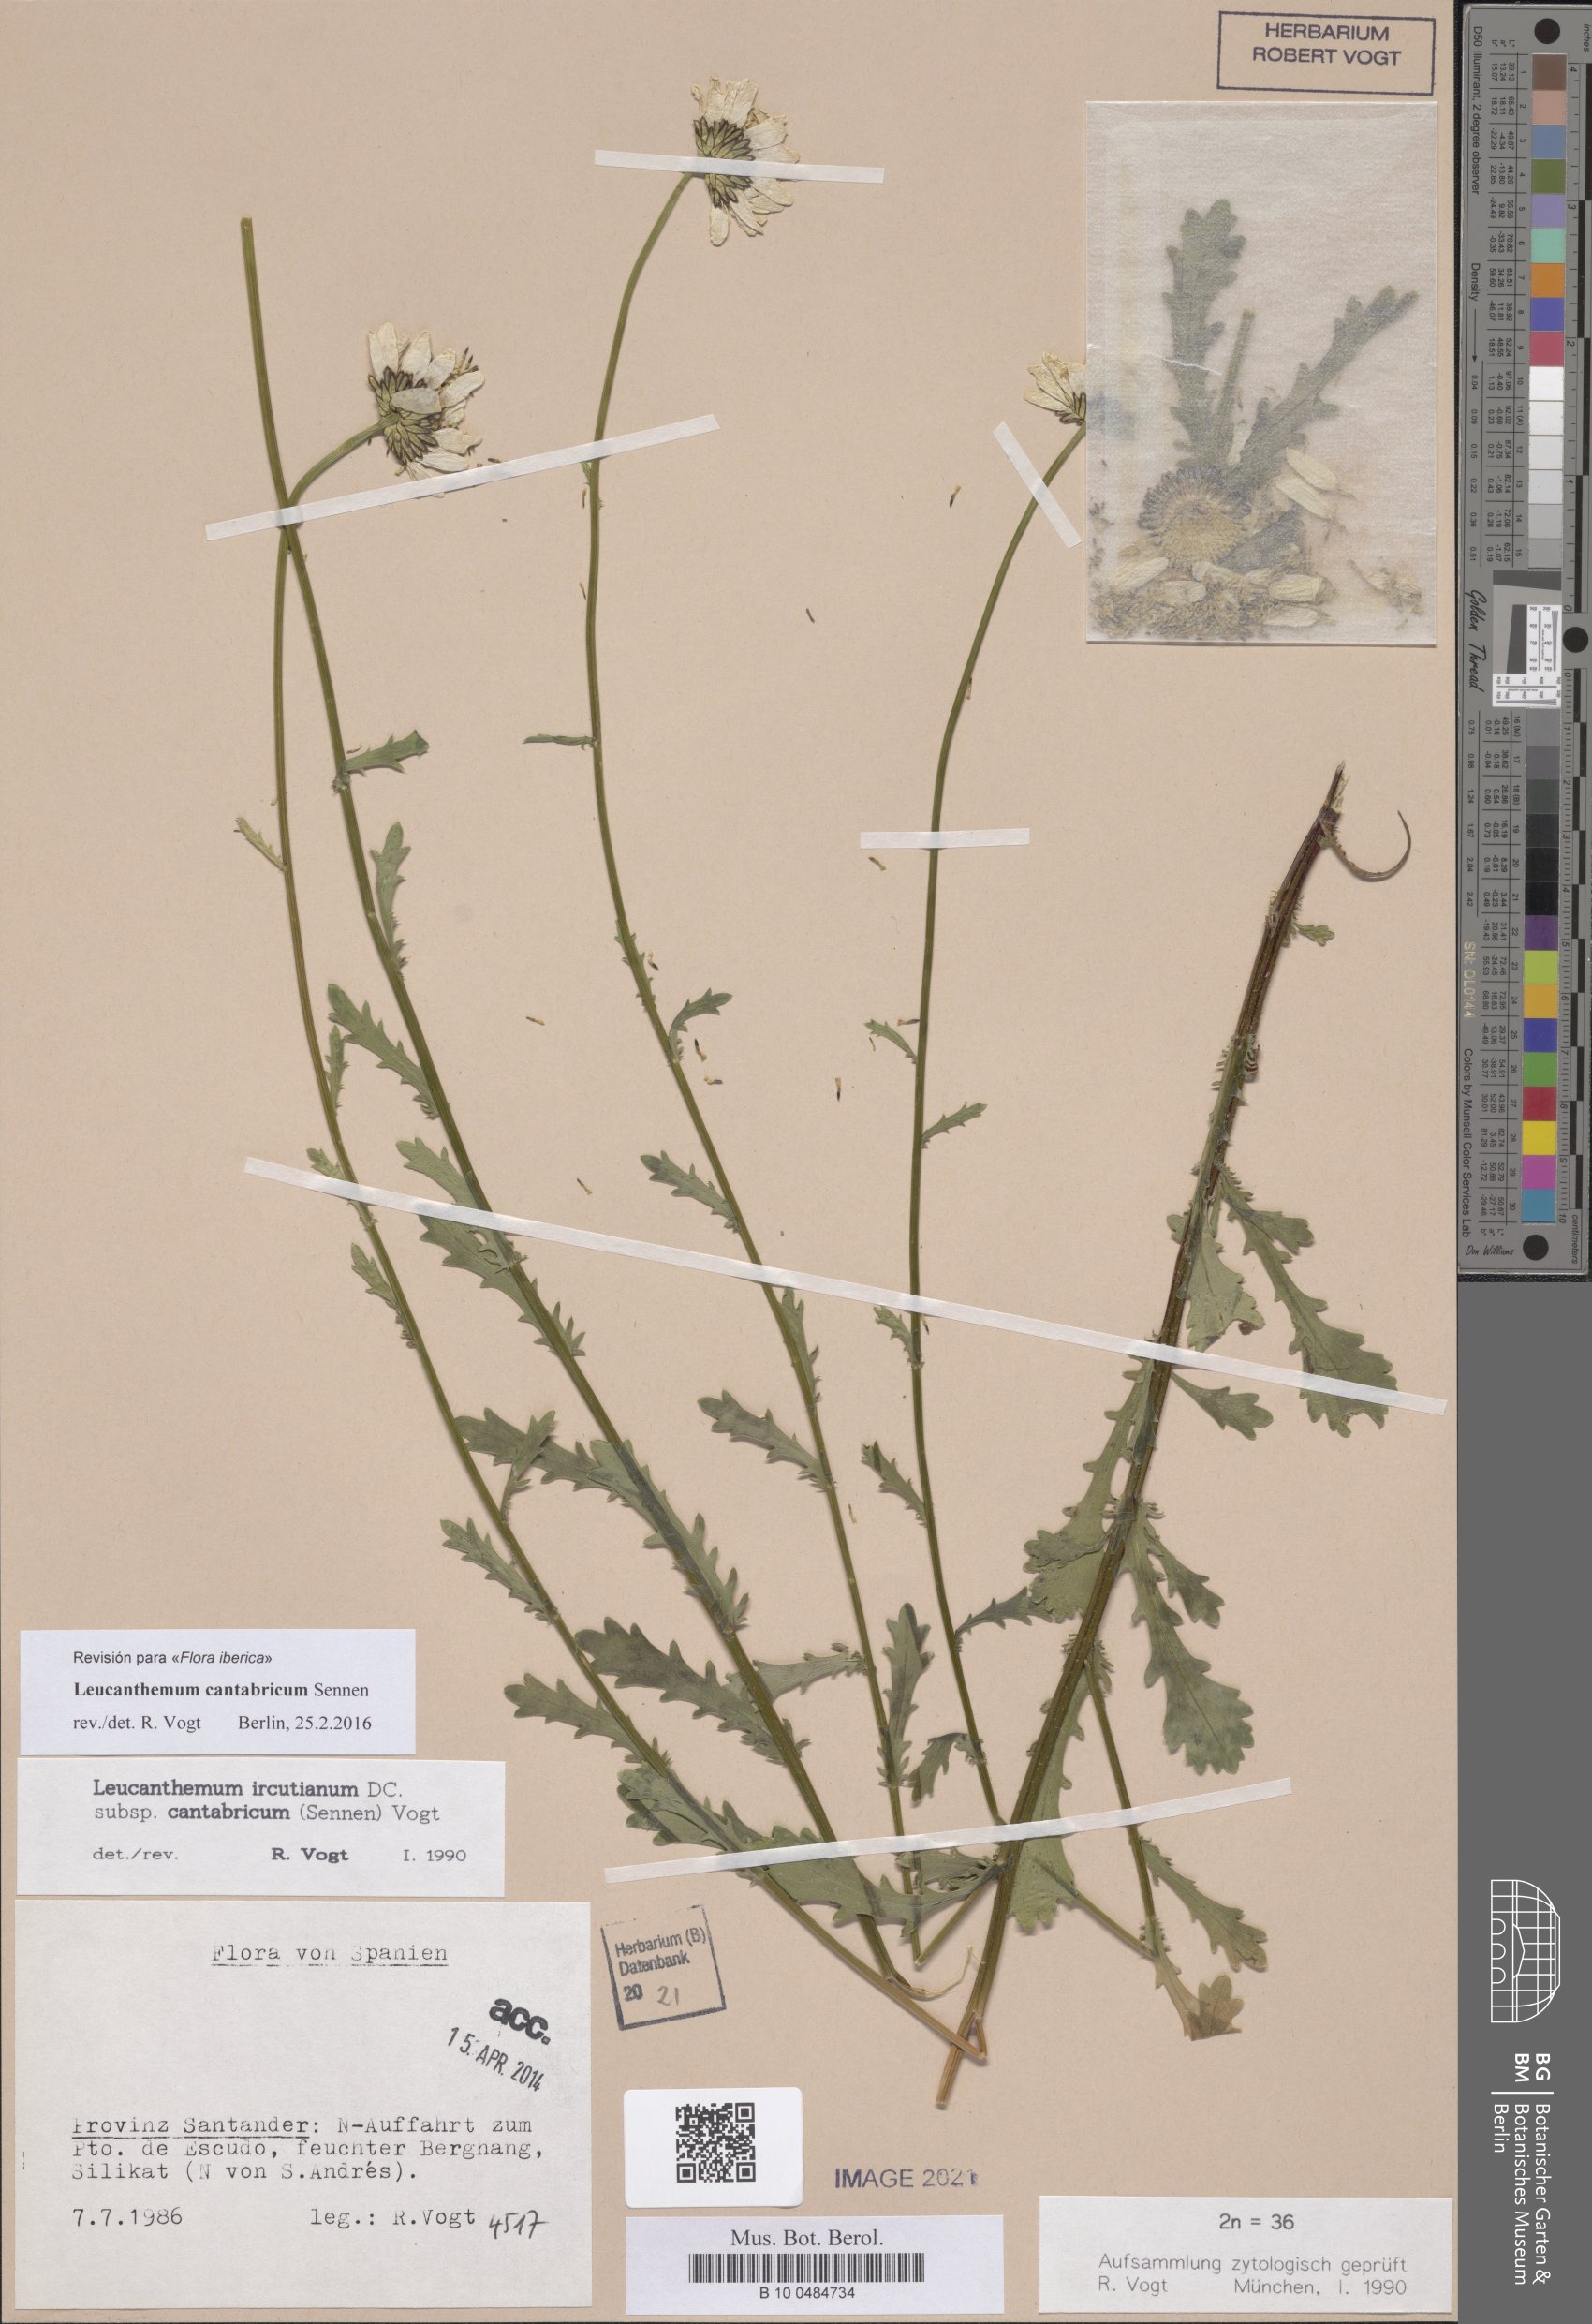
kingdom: Plantae
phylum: Tracheophyta
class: Magnoliopsida
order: Asterales
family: Asteraceae
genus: Leucanthemum
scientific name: Leucanthemum cantabricum
